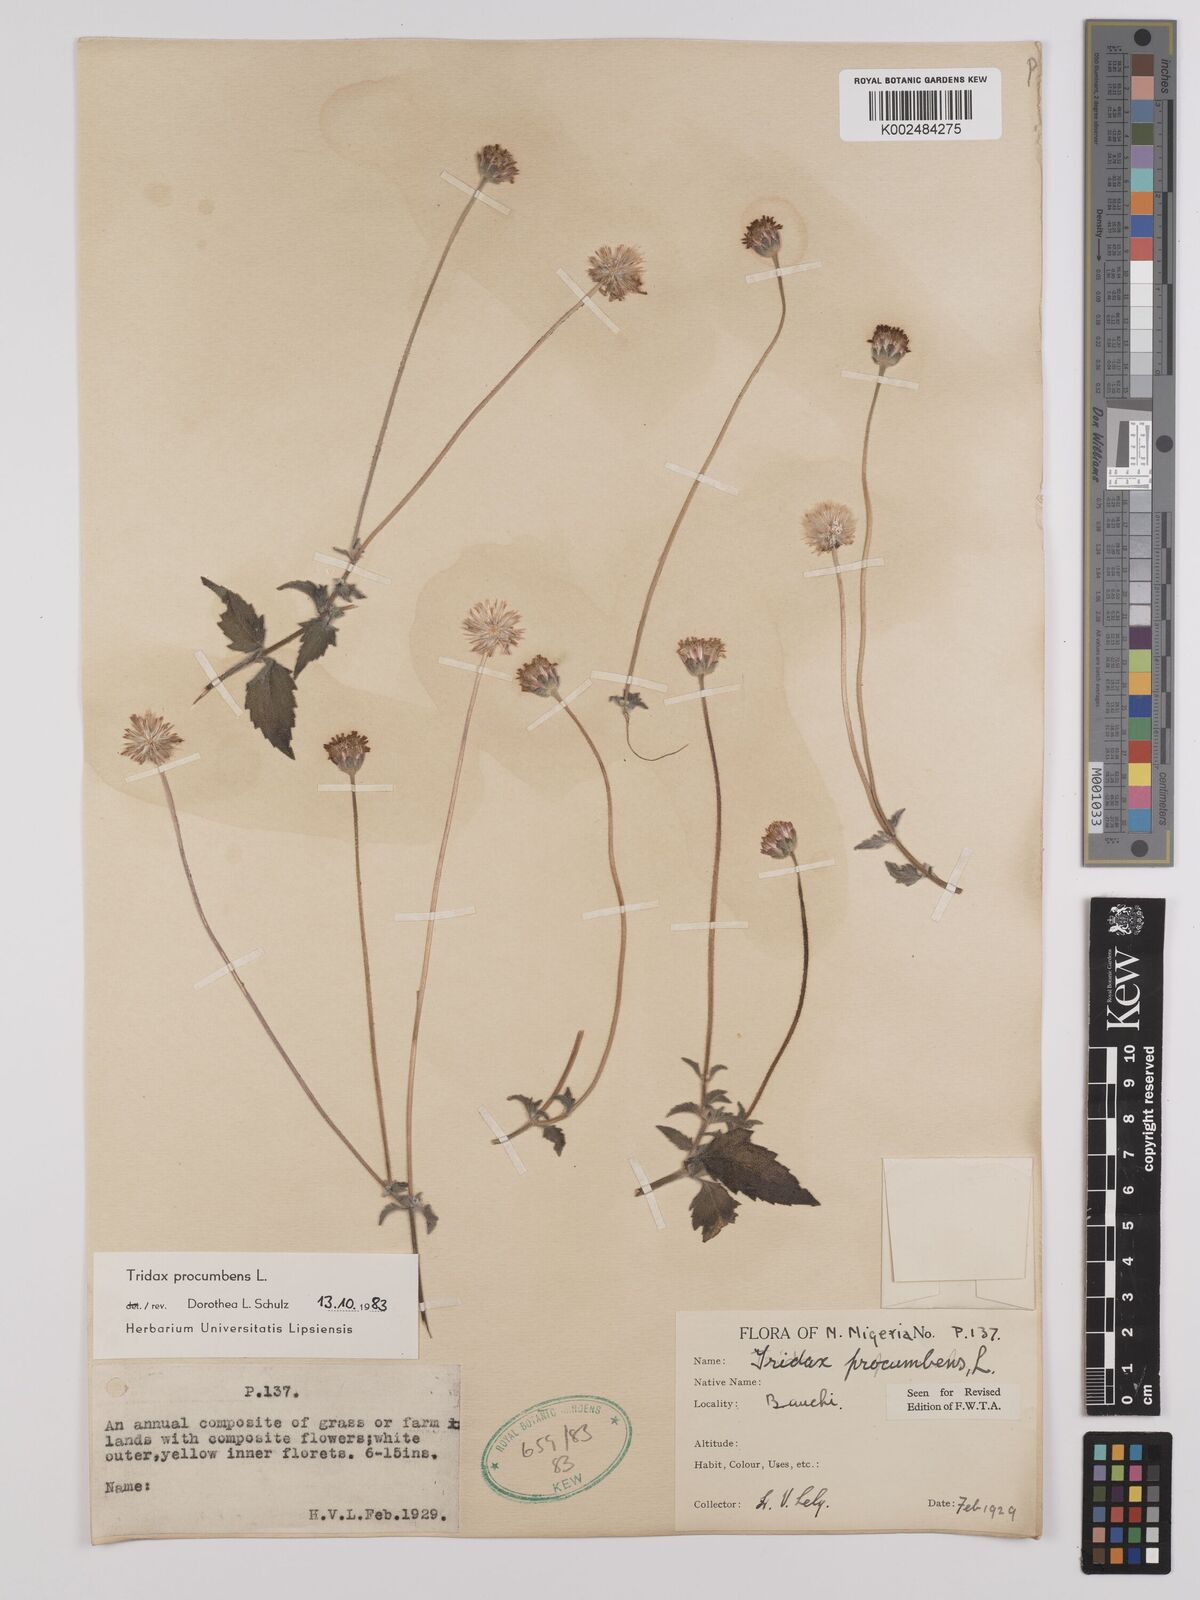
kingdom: Plantae
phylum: Tracheophyta
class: Magnoliopsida
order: Asterales
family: Asteraceae
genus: Tridax
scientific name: Tridax procumbens
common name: Coatbuttons
